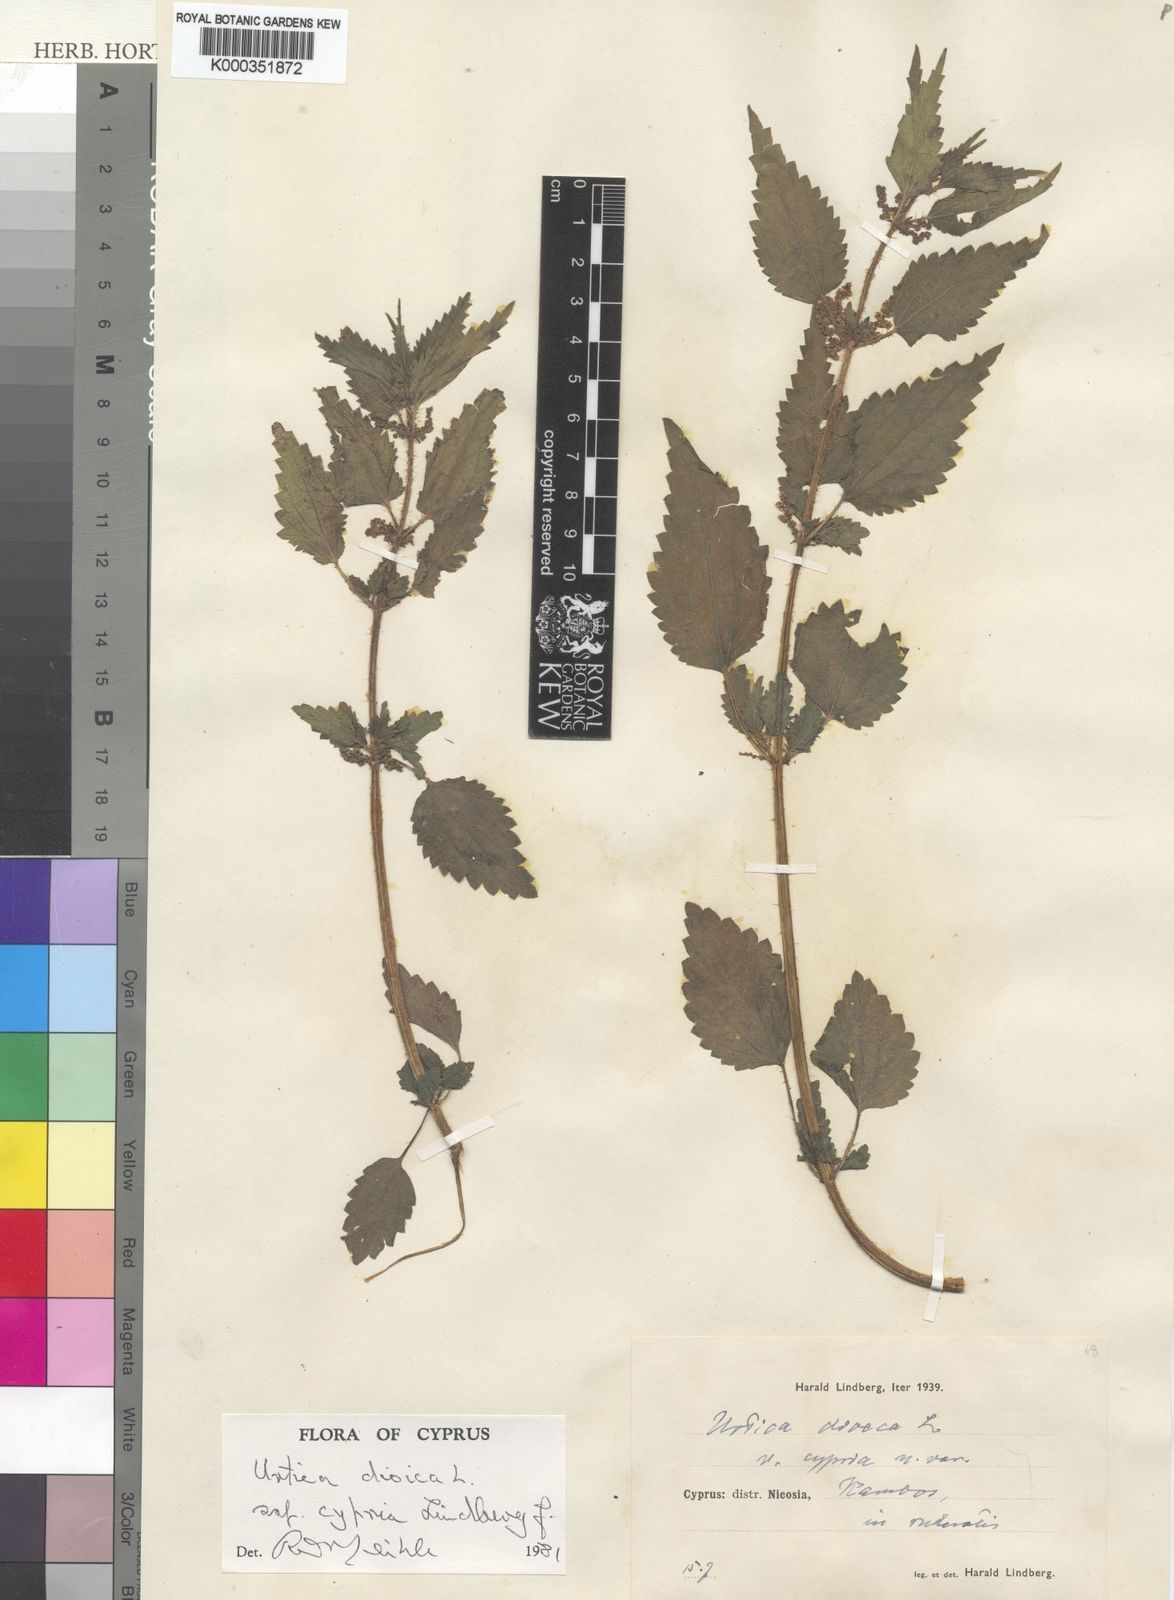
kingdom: Plantae
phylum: Tracheophyta
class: Magnoliopsida
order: Rosales
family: Urticaceae
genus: Urtica
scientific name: Urtica dioica
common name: Common nettle
